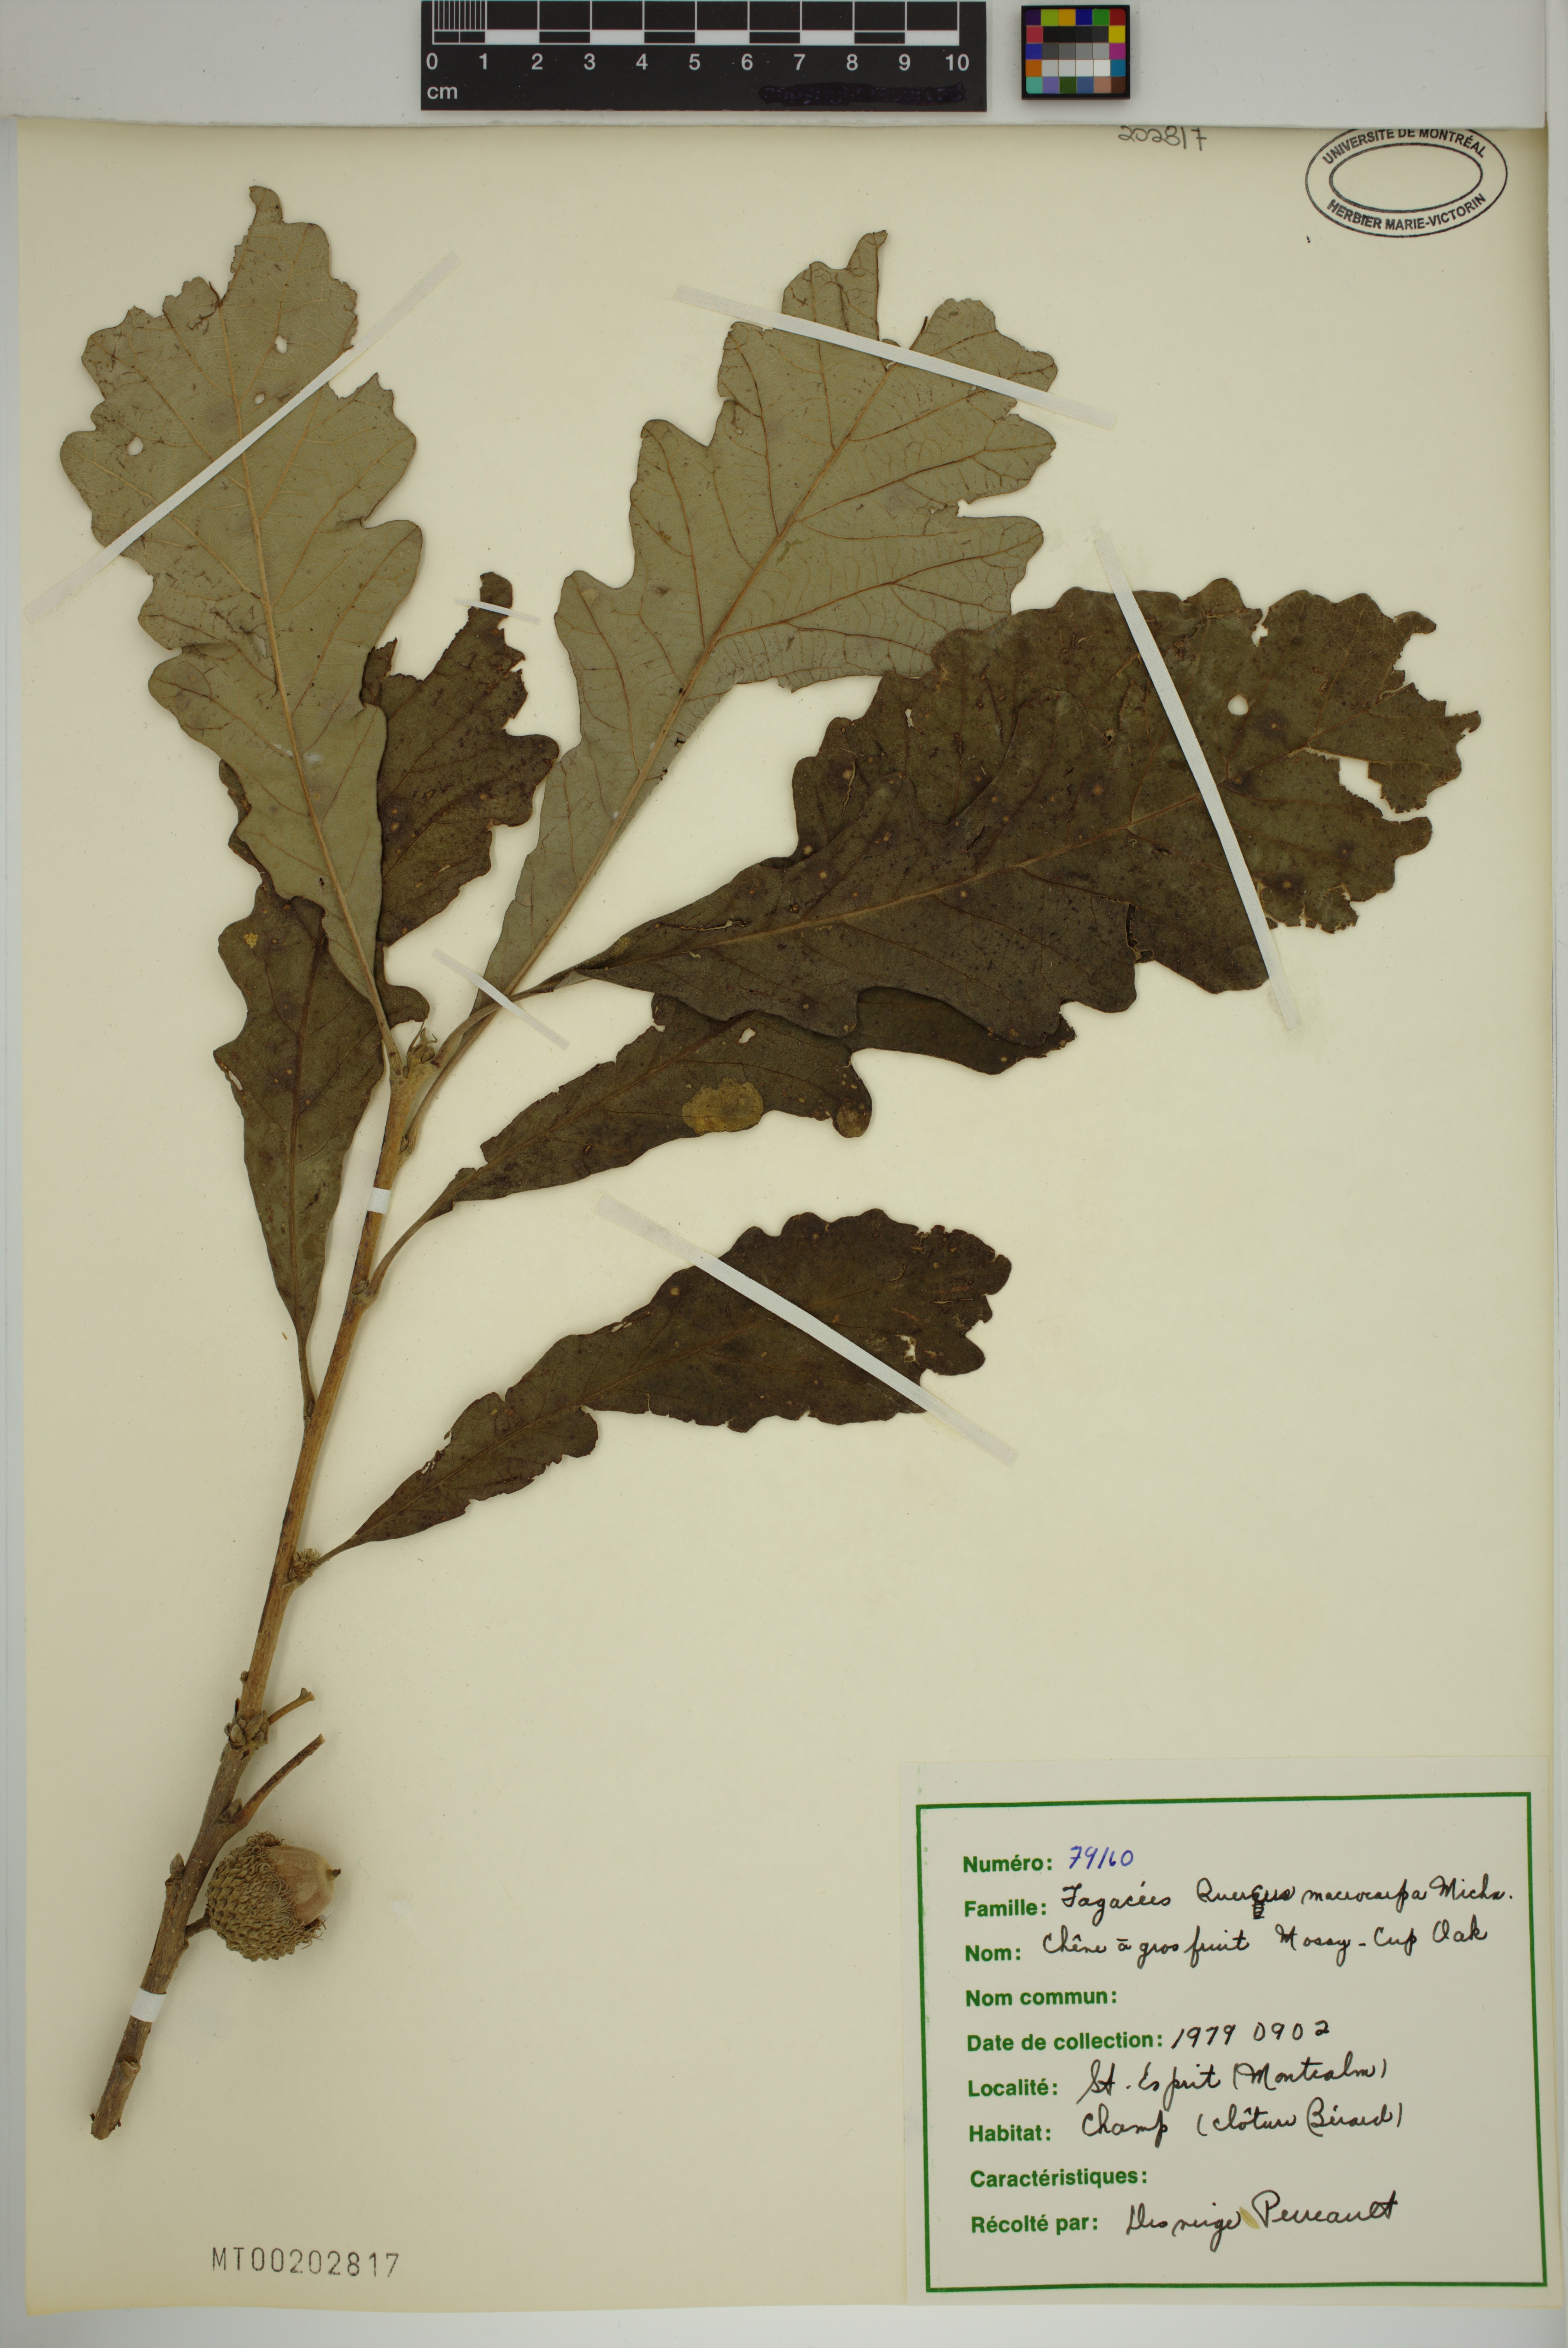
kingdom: Plantae
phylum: Tracheophyta
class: Magnoliopsida
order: Fagales
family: Fagaceae
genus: Quercus
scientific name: Quercus macrocarpa
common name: Bur oak
